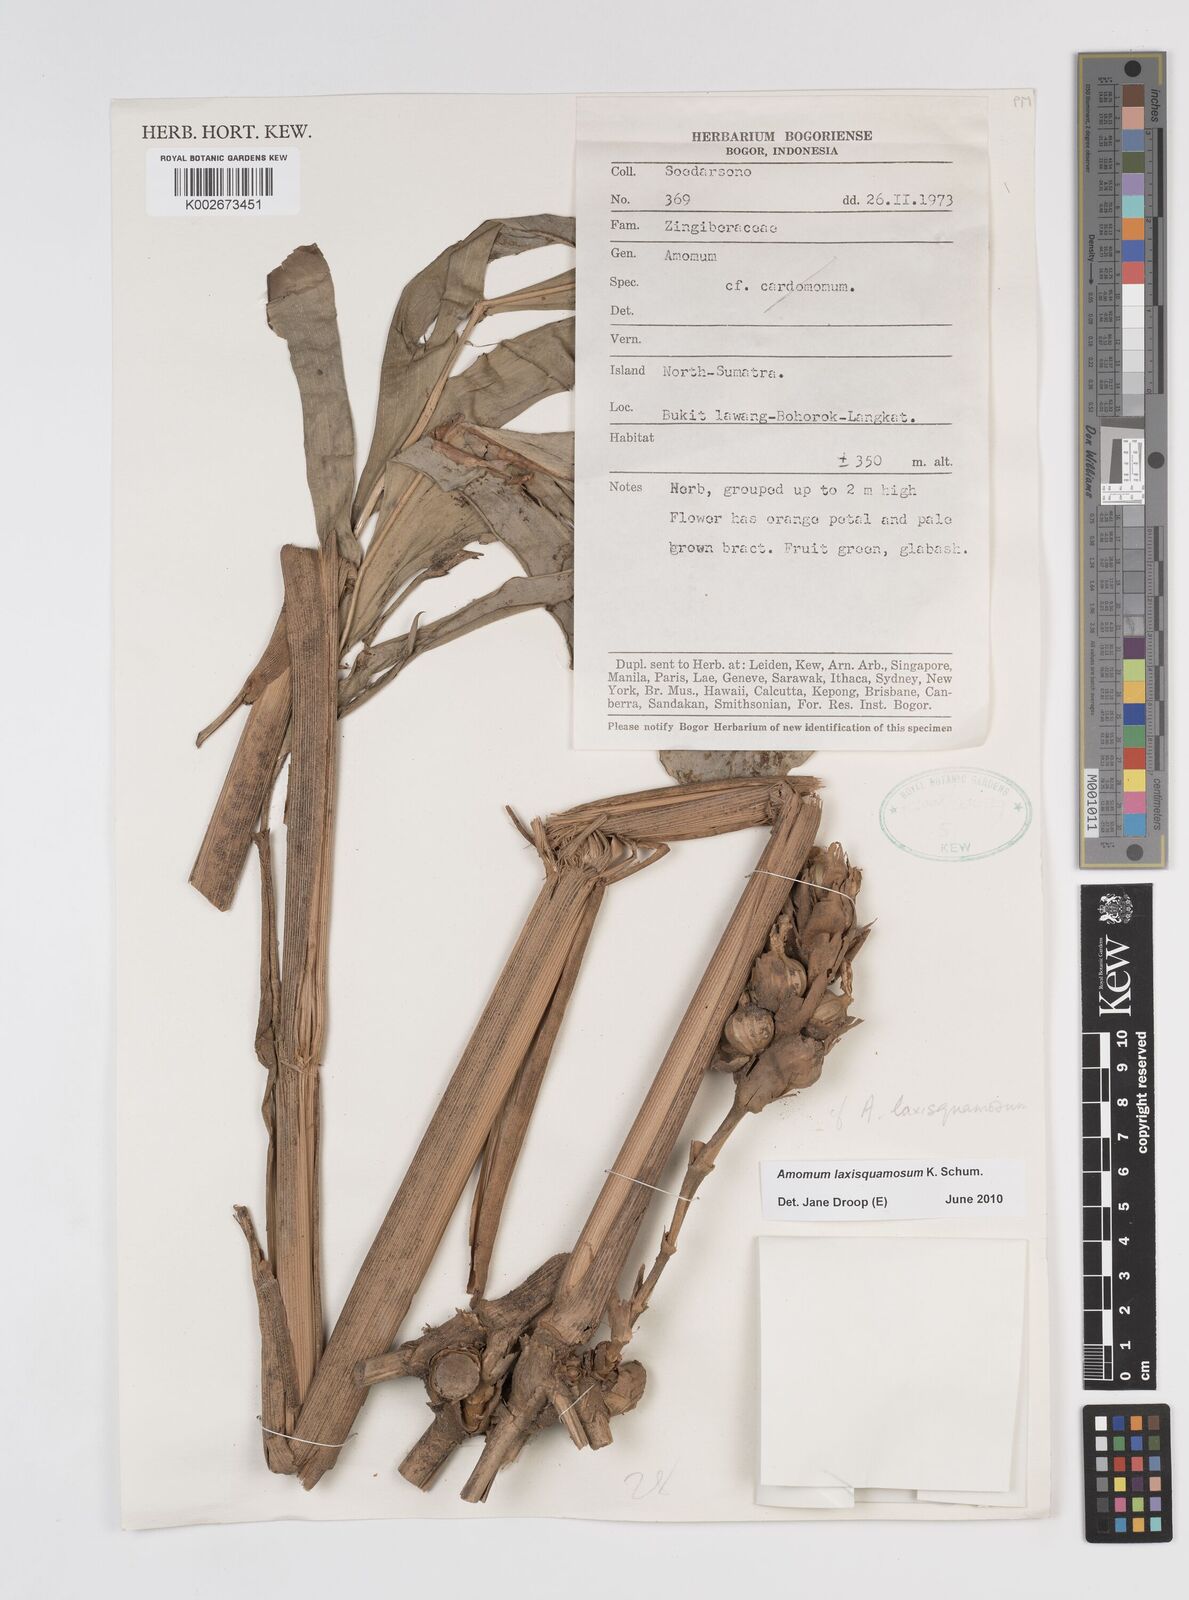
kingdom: Plantae
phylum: Tracheophyta
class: Liliopsida
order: Zingiberales
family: Zingiberaceae
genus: Sundamomum
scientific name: Sundamomum laxesquamosum
